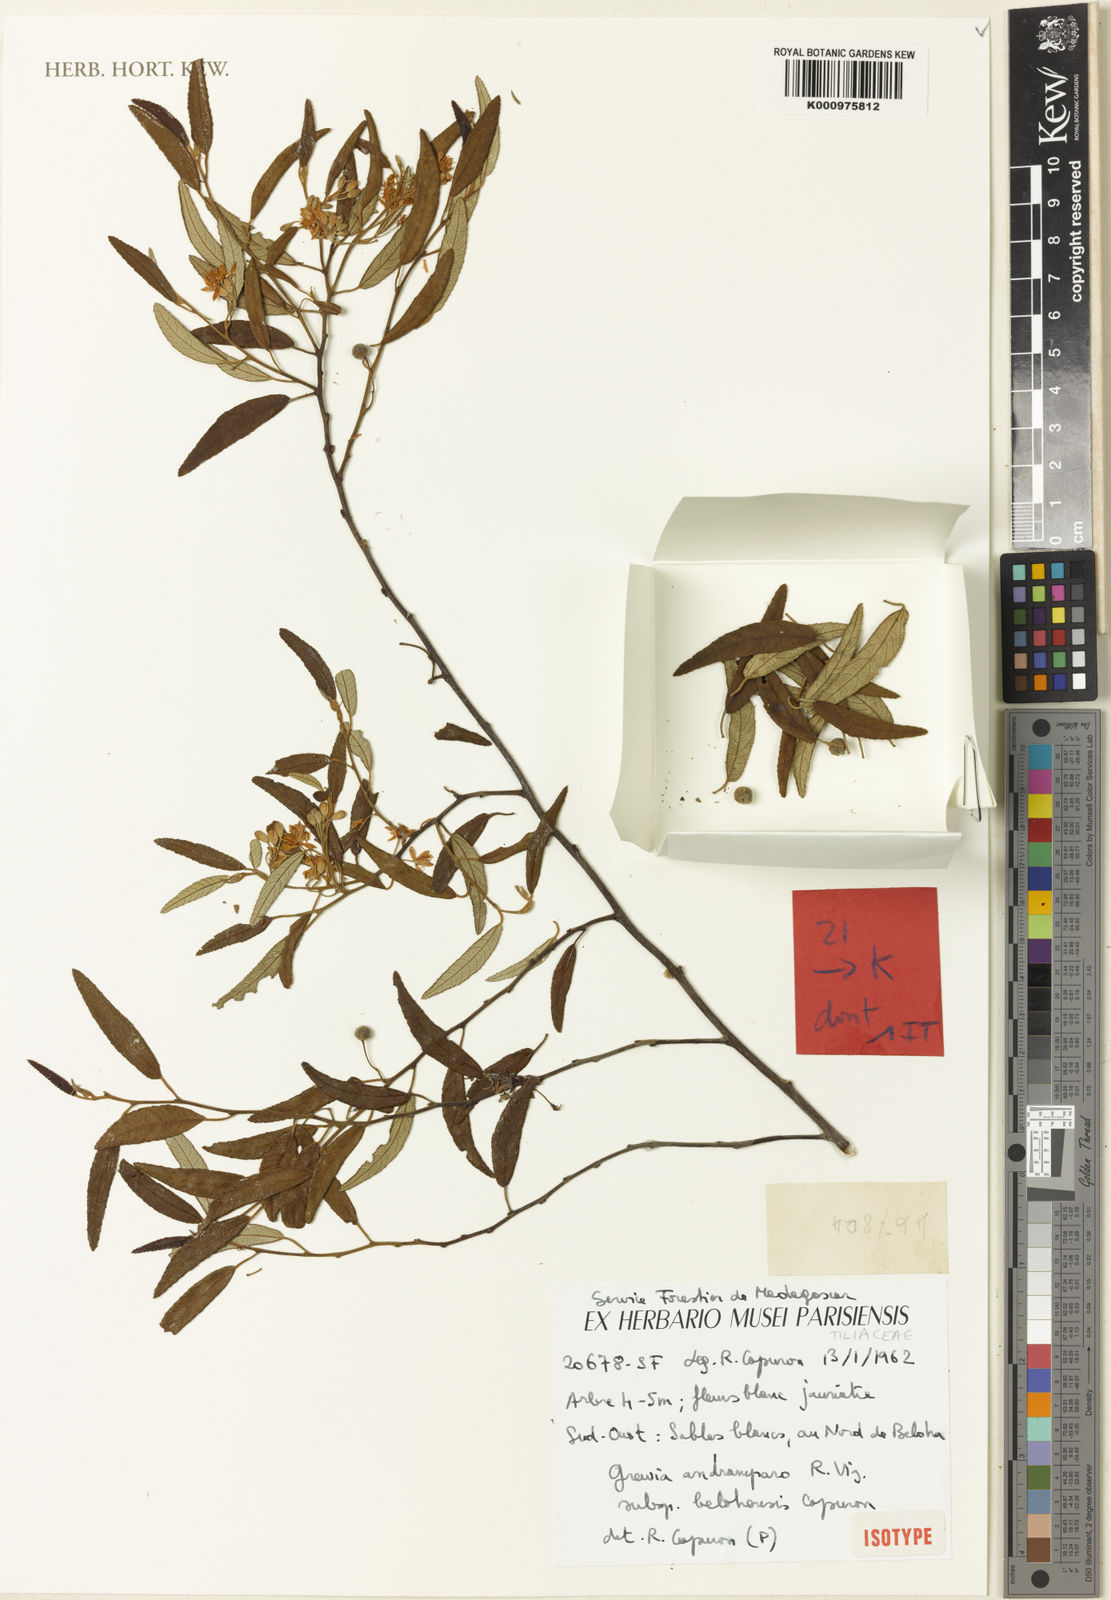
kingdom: Plantae
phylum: Tracheophyta
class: Magnoliopsida
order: Malvales
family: Malvaceae
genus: Grewia
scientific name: Grewia andramparo
